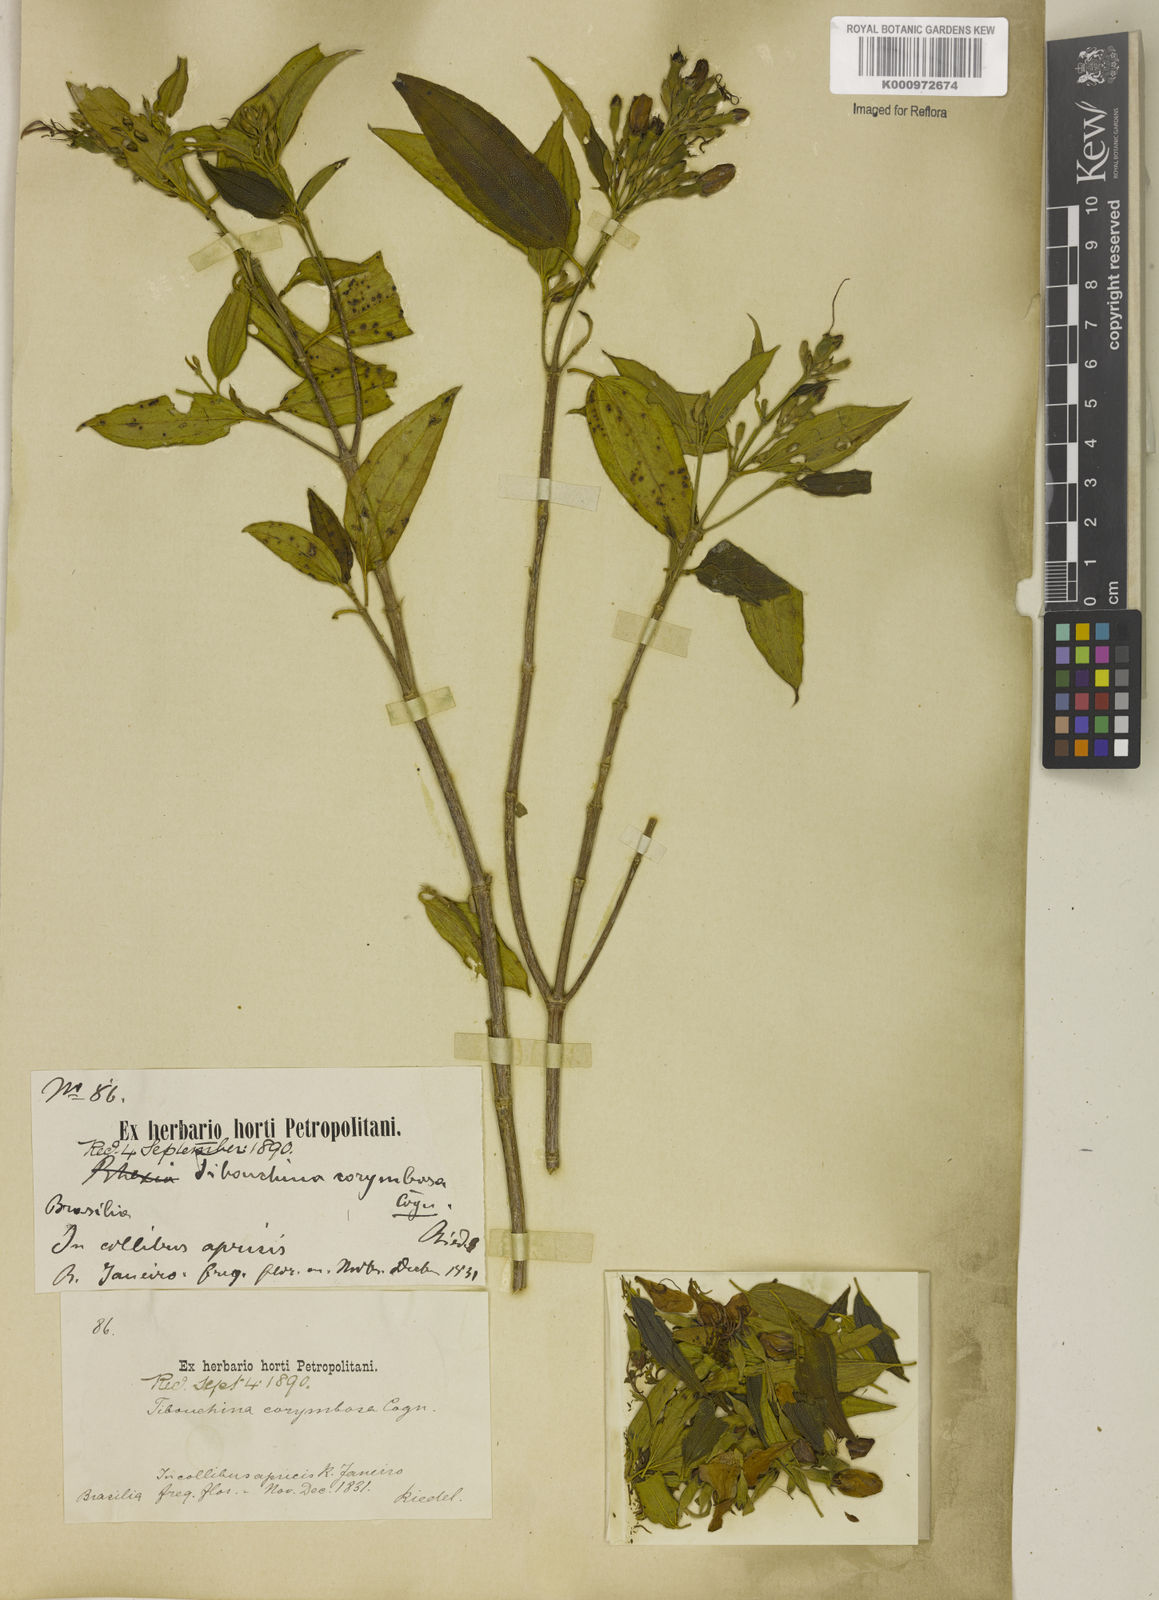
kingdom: Plantae
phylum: Tracheophyta
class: Magnoliopsida
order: Myrtales
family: Melastomataceae
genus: Pleroma
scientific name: Pleroma vimineum
